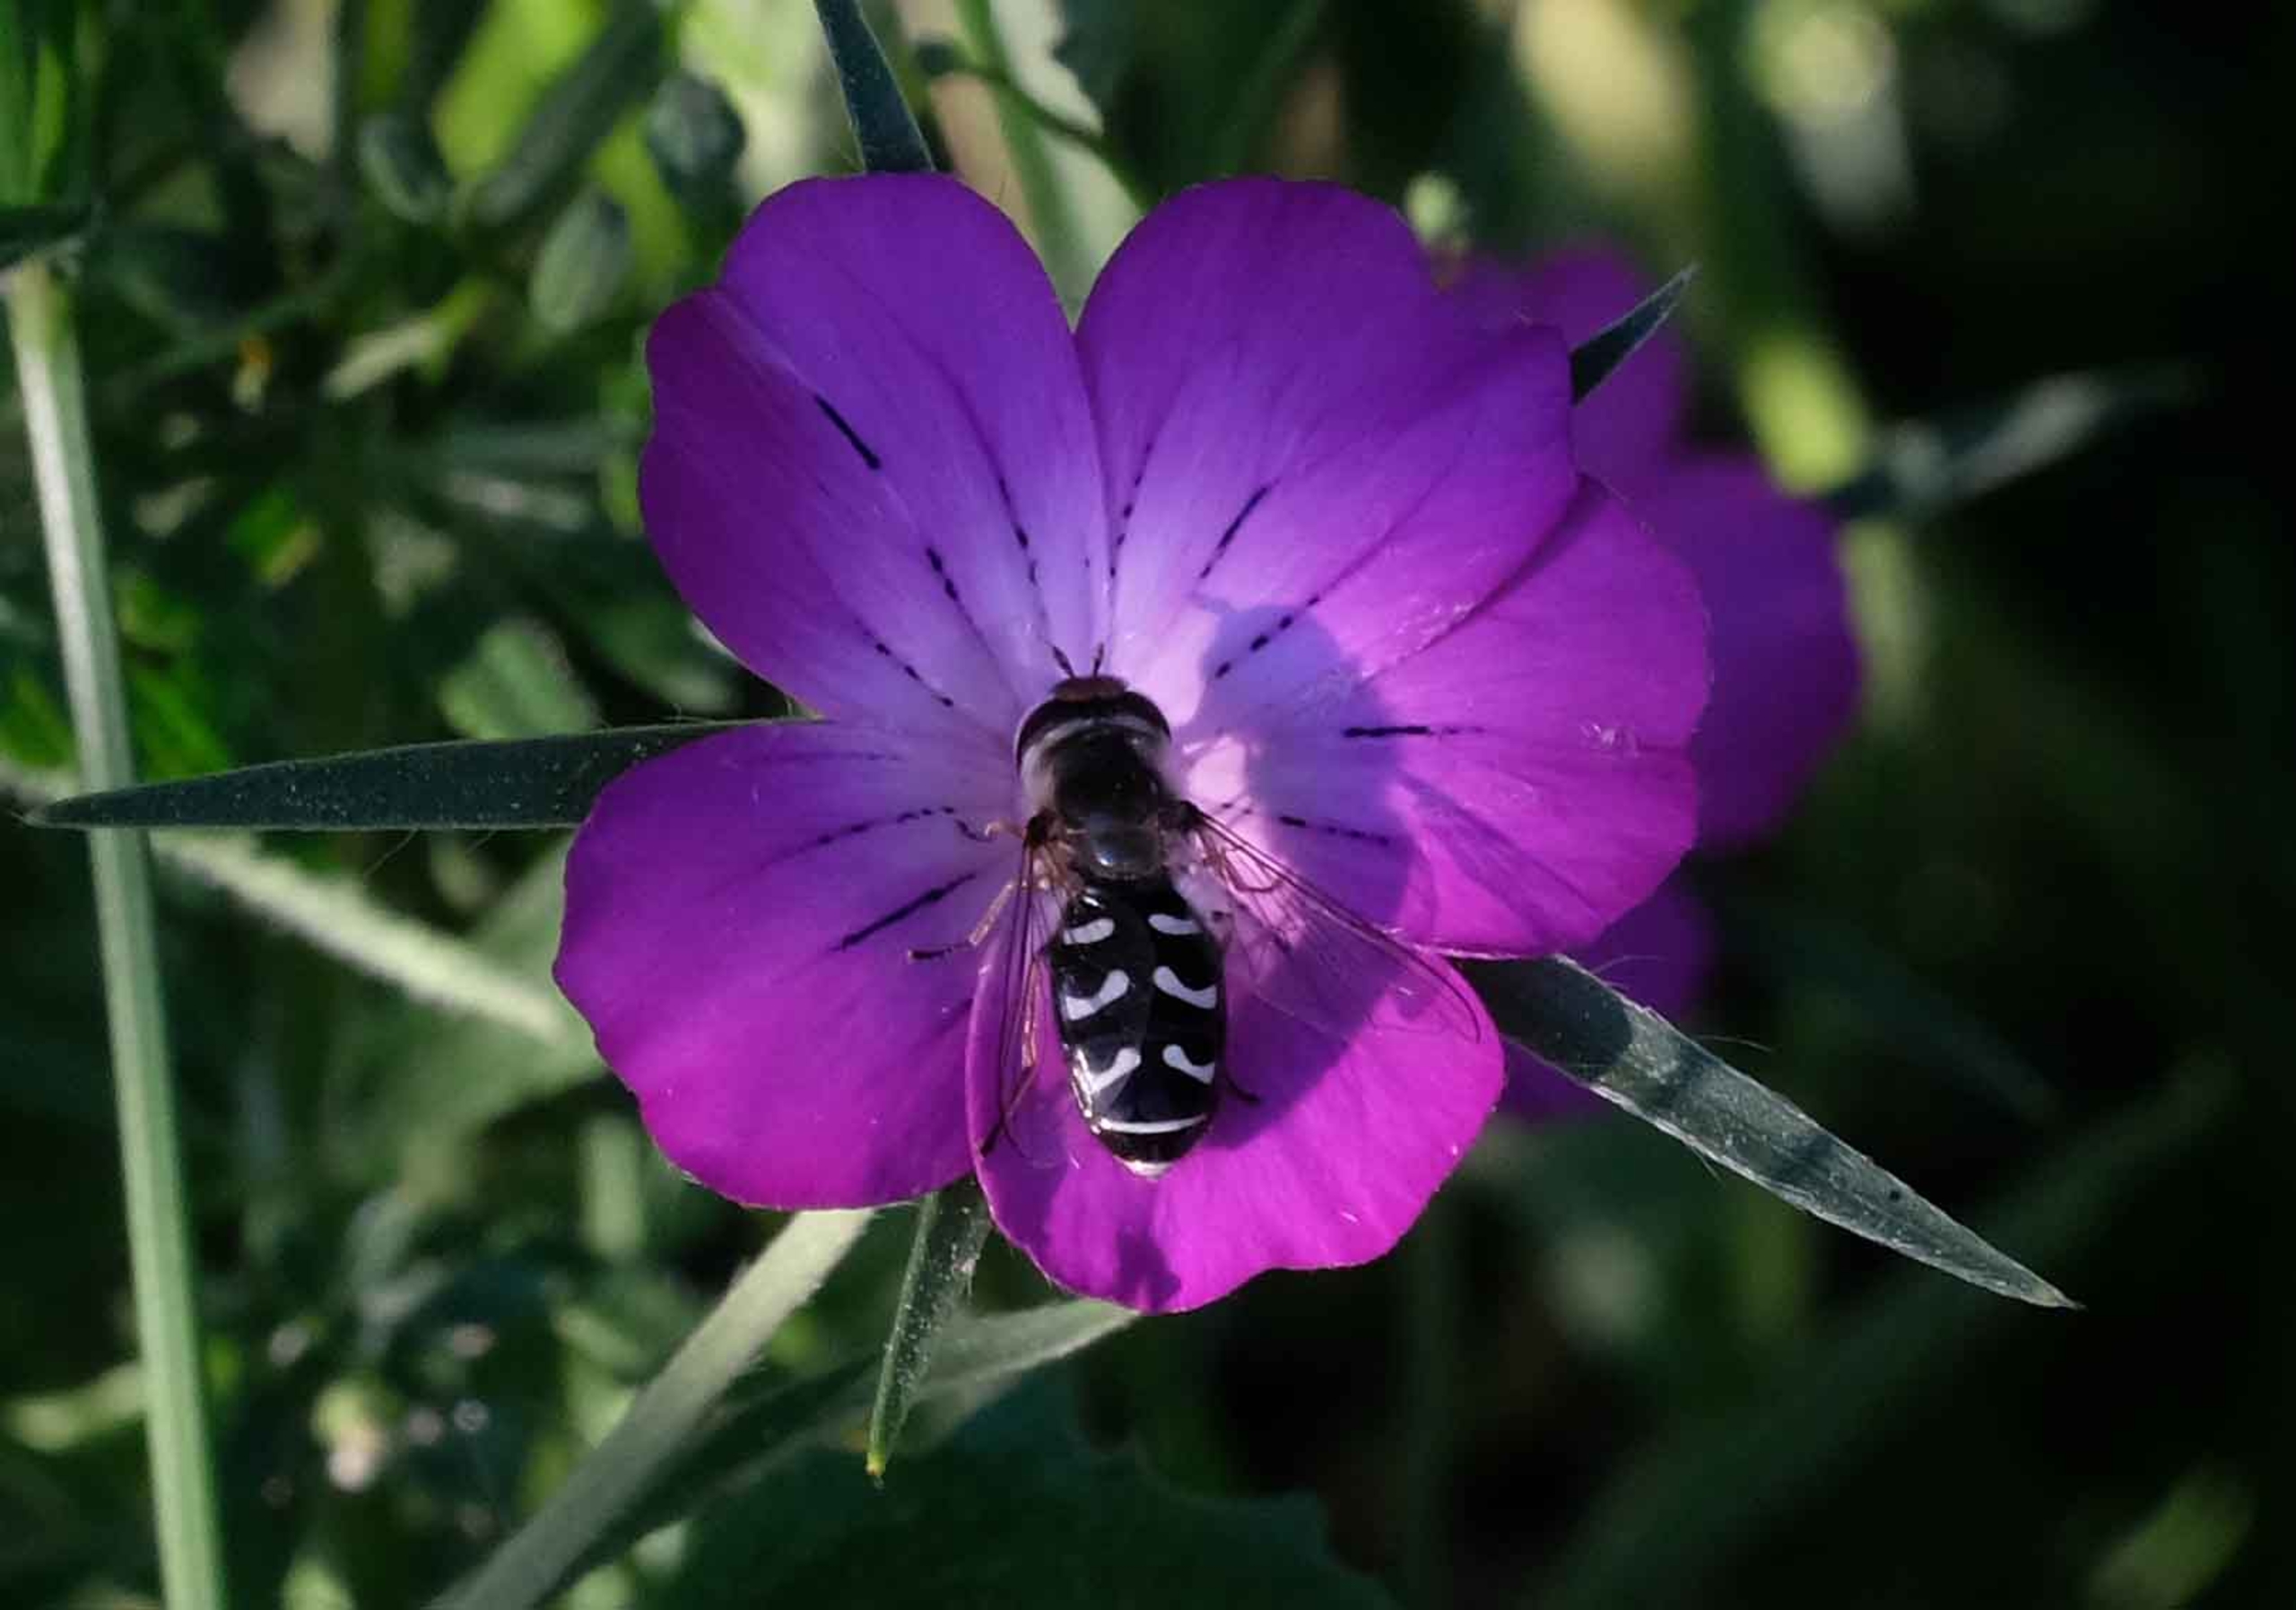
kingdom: Animalia
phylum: Arthropoda
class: Insecta
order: Diptera
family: Syrphidae
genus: Scaeva
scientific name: Scaeva pyrastri
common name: Hvidplettet agersvirreflue
